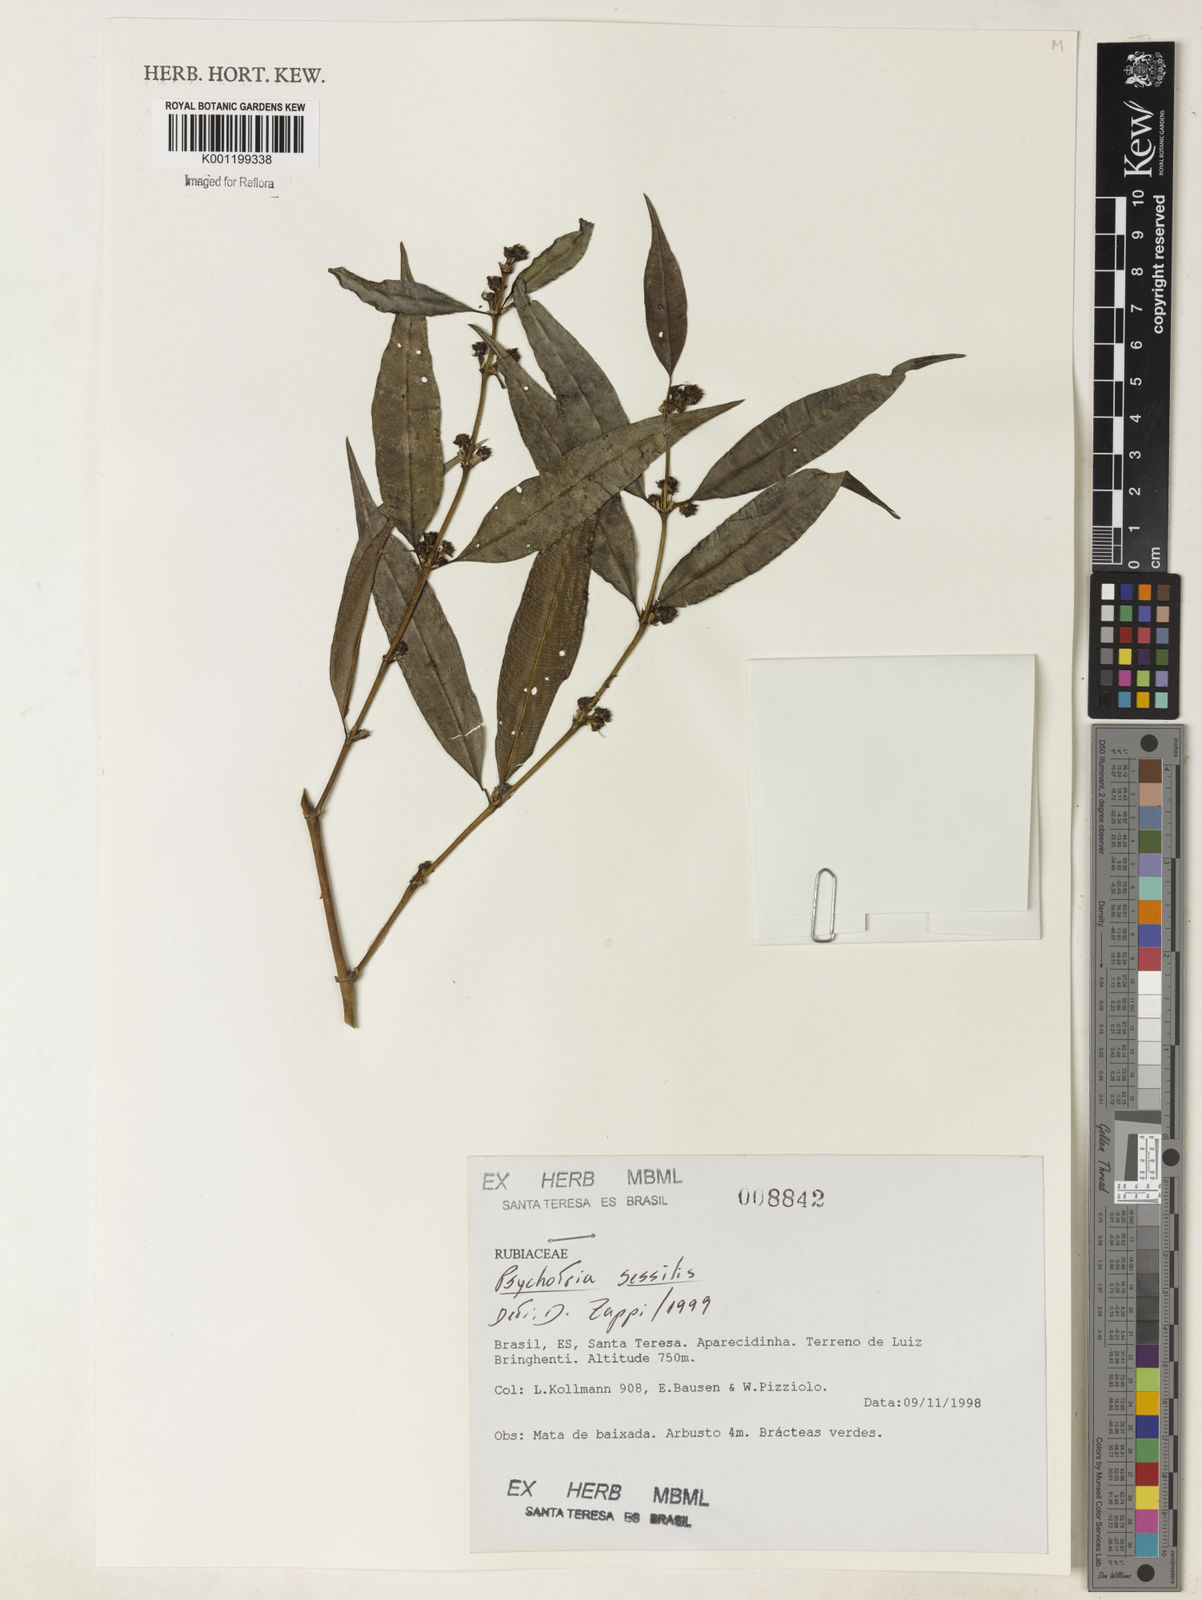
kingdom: Plantae
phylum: Tracheophyta
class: Magnoliopsida
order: Gentianales
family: Rubiaceae
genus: Rudgea
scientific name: Rudgea sessilis
